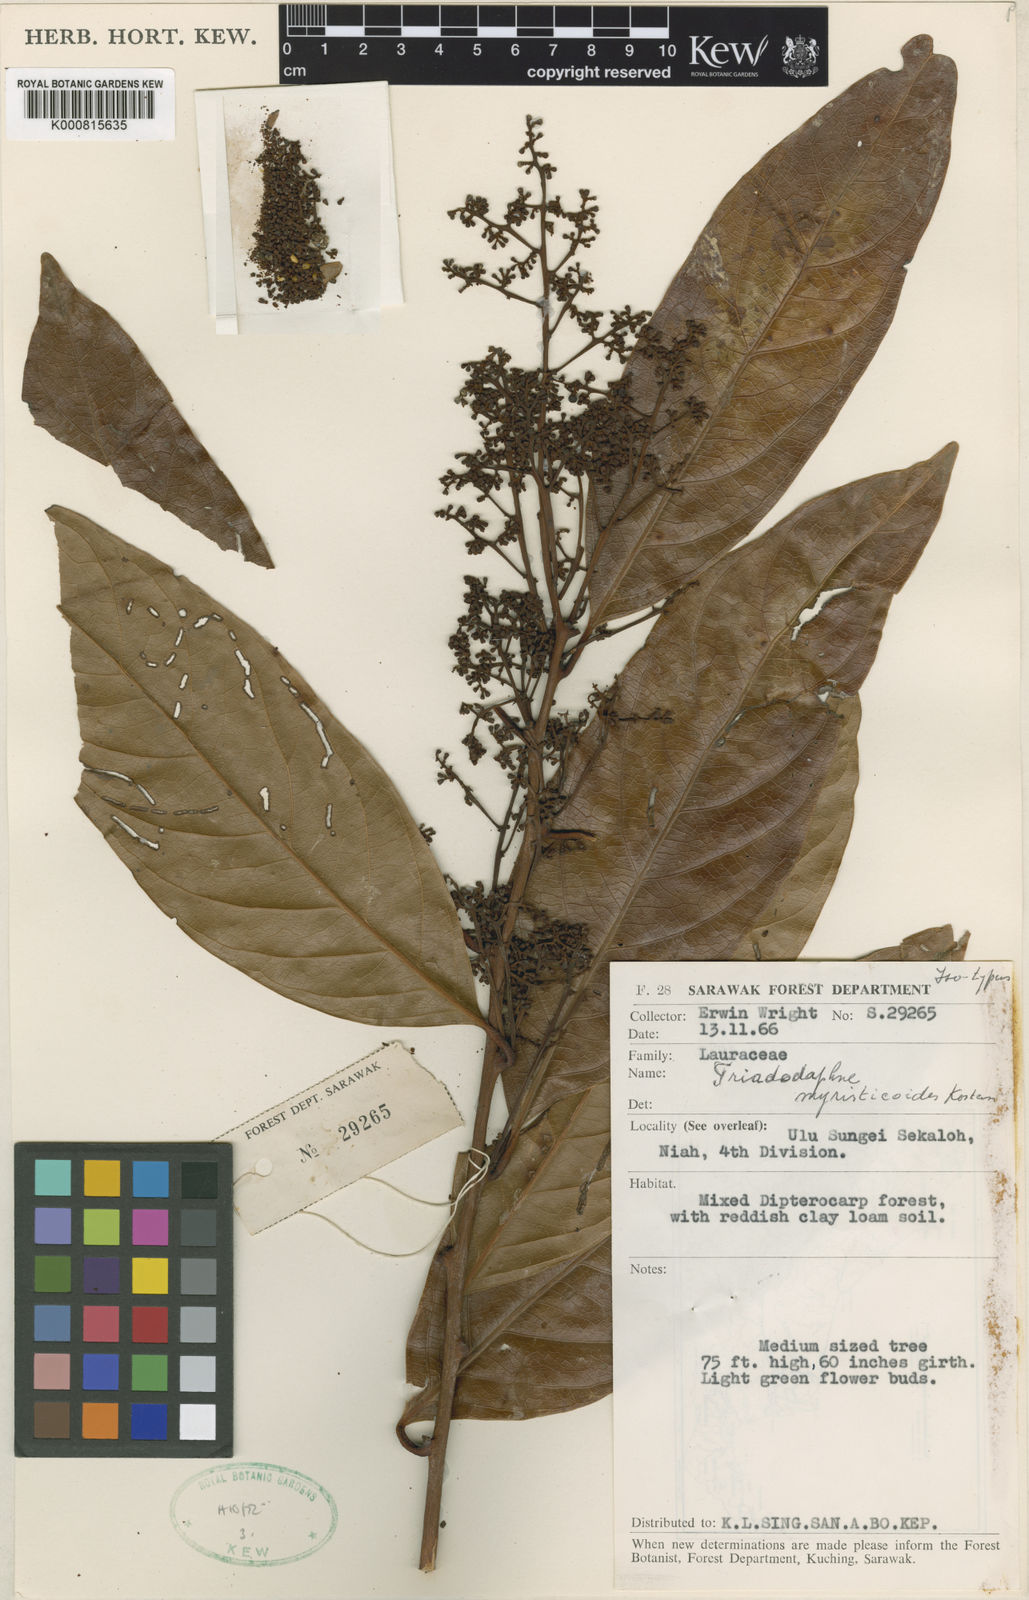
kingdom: Plantae
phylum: Tracheophyta
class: Magnoliopsida
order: Laurales
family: Lauraceae
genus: Triadodaphne
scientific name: Triadodaphne myristicoides
